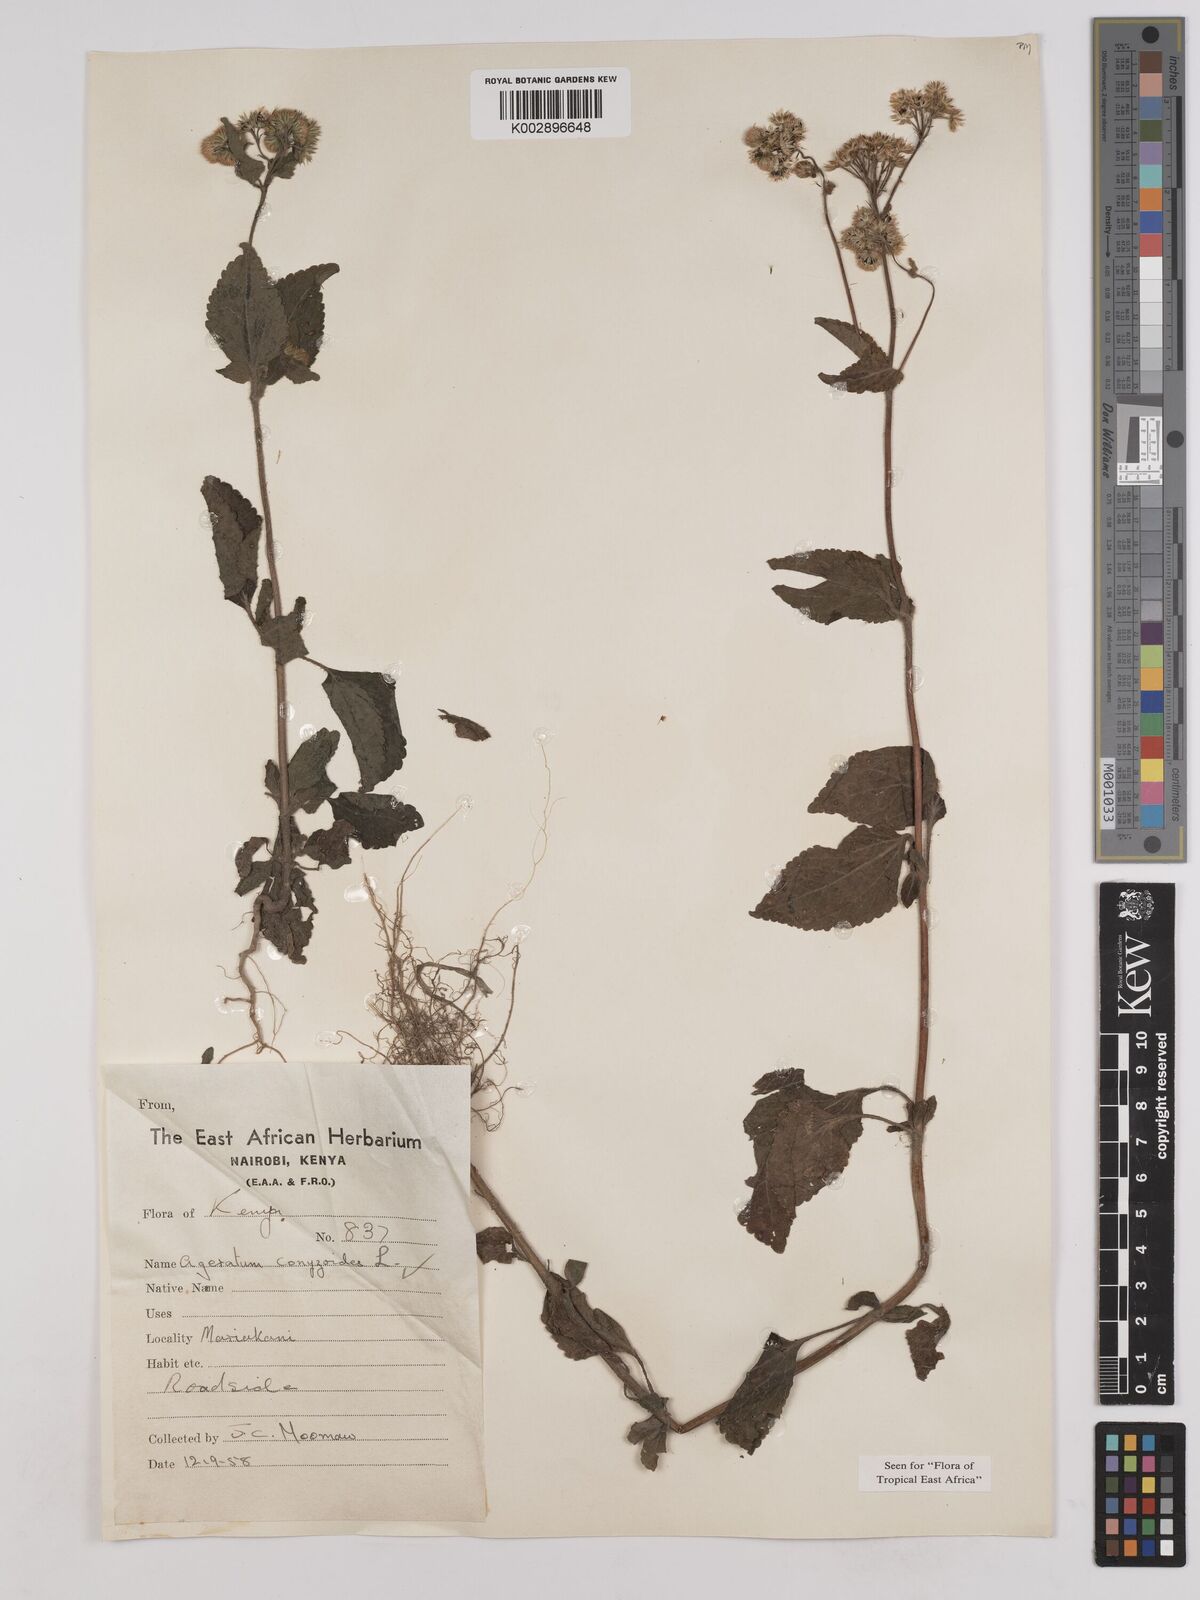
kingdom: Plantae
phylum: Tracheophyta
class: Magnoliopsida
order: Asterales
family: Asteraceae
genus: Ageratum
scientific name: Ageratum conyzoides
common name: Tropical whiteweed
